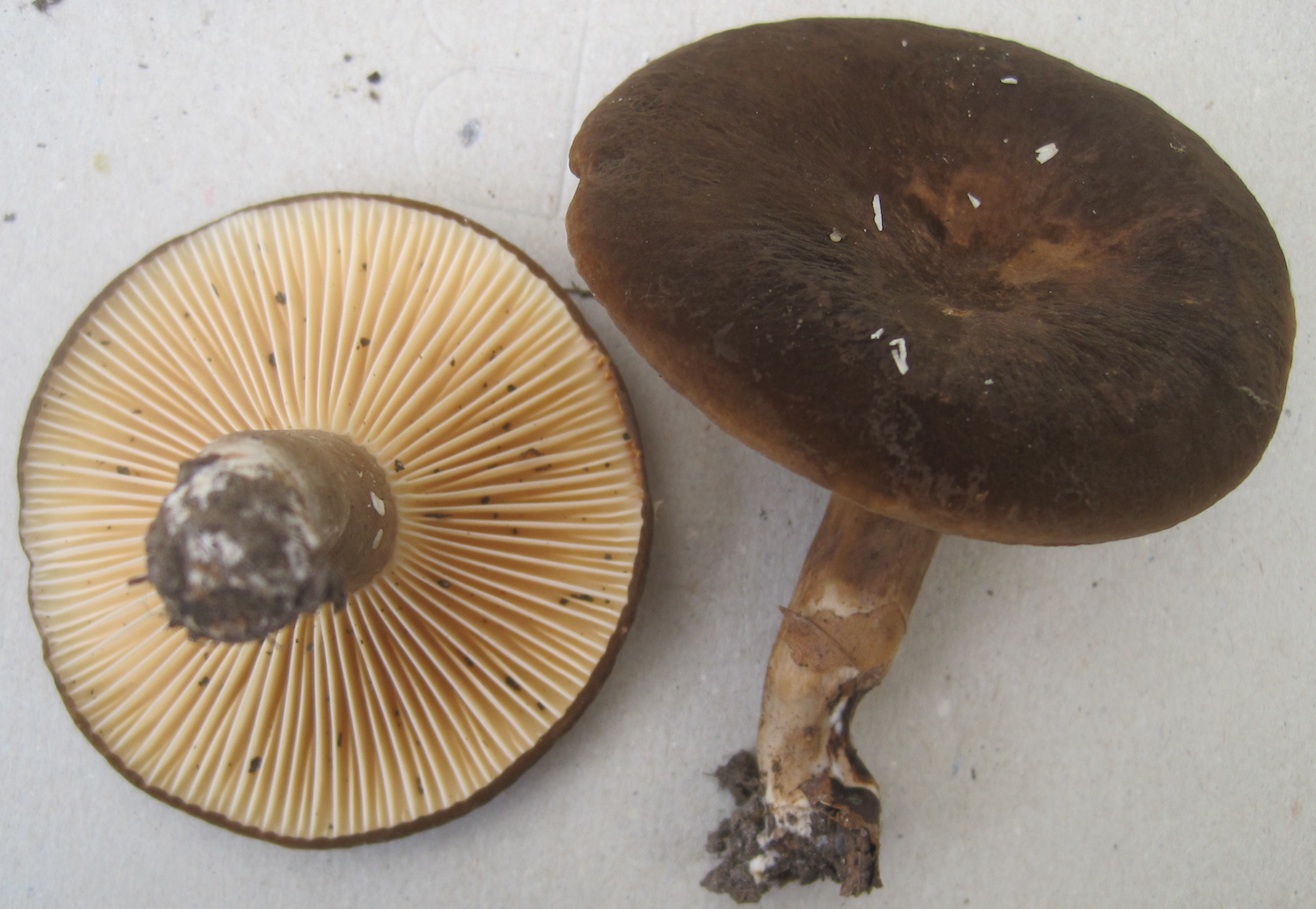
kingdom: Fungi
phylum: Basidiomycota
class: Agaricomycetes
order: Russulales
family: Russulaceae
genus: Lactarius
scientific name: Lactarius romagnesii
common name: fjernbladet mælkehat
